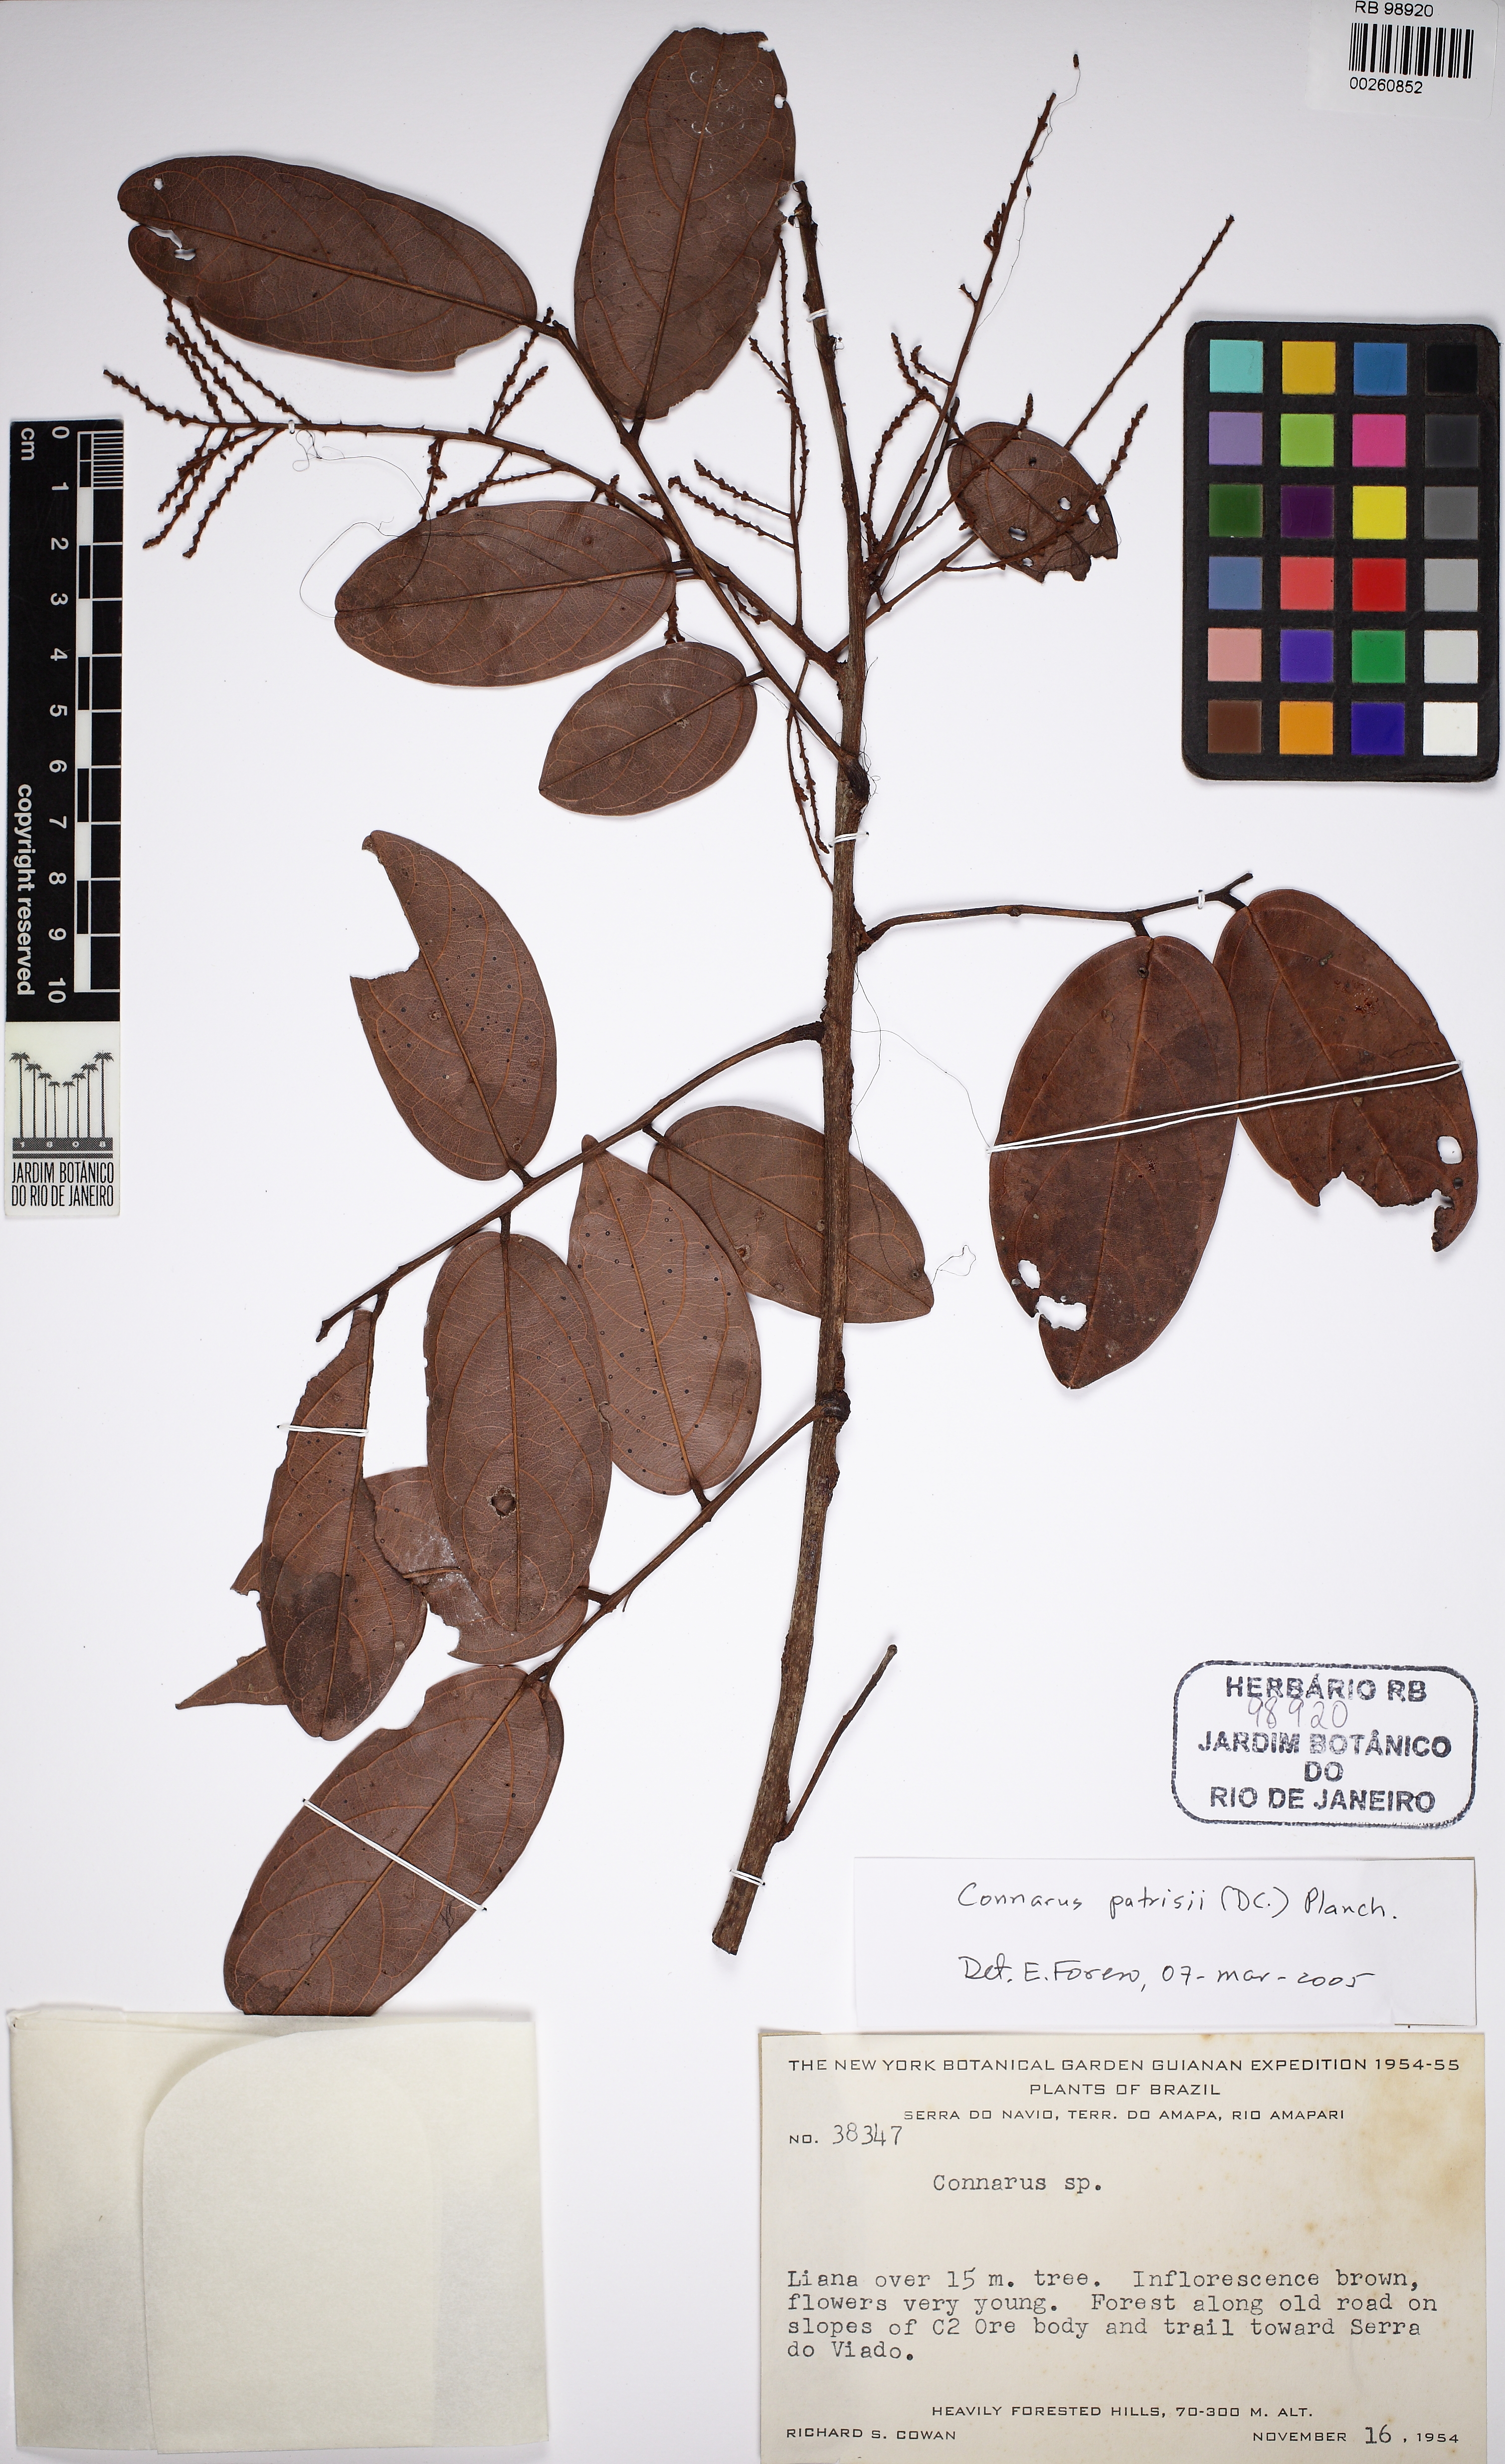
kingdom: Plantae
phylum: Tracheophyta
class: Magnoliopsida
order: Oxalidales
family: Connaraceae
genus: Connarus
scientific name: Connarus patrisii
